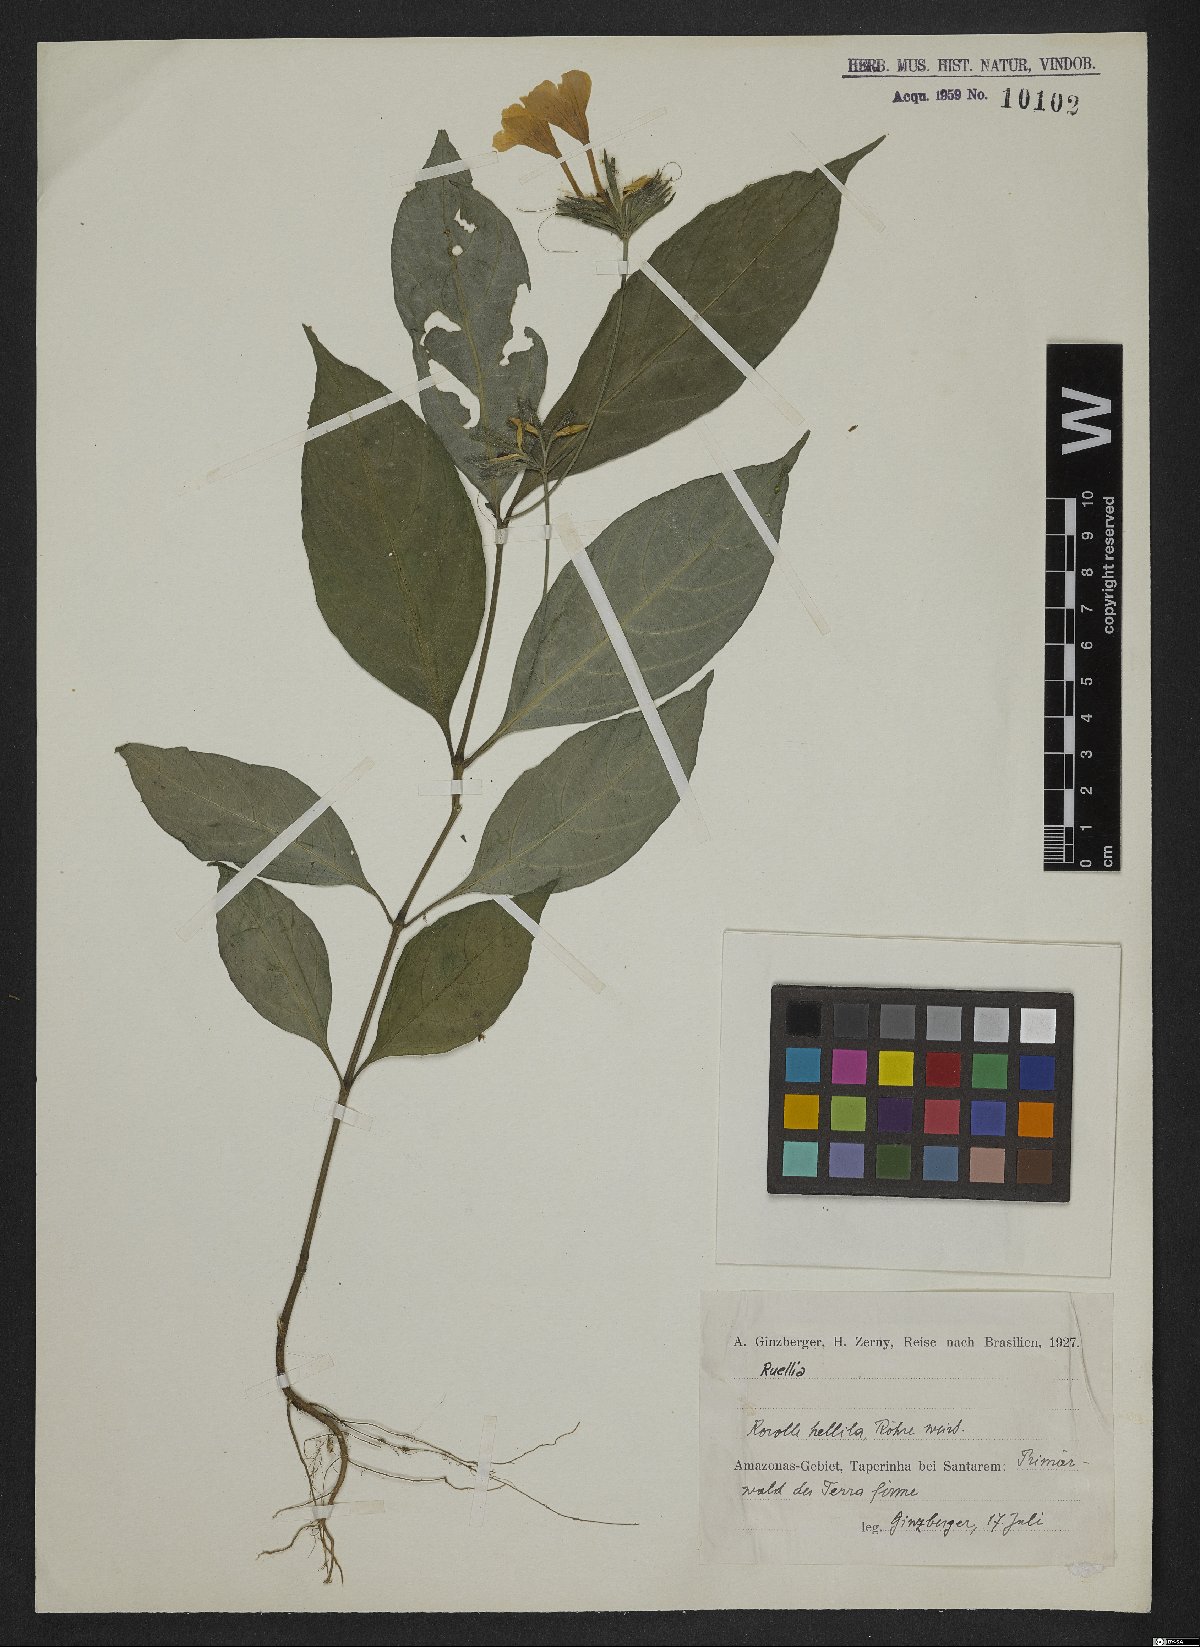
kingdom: Plantae
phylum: Tracheophyta
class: Magnoliopsida
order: Lamiales
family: Acanthaceae
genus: Ruellia
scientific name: Ruellia
